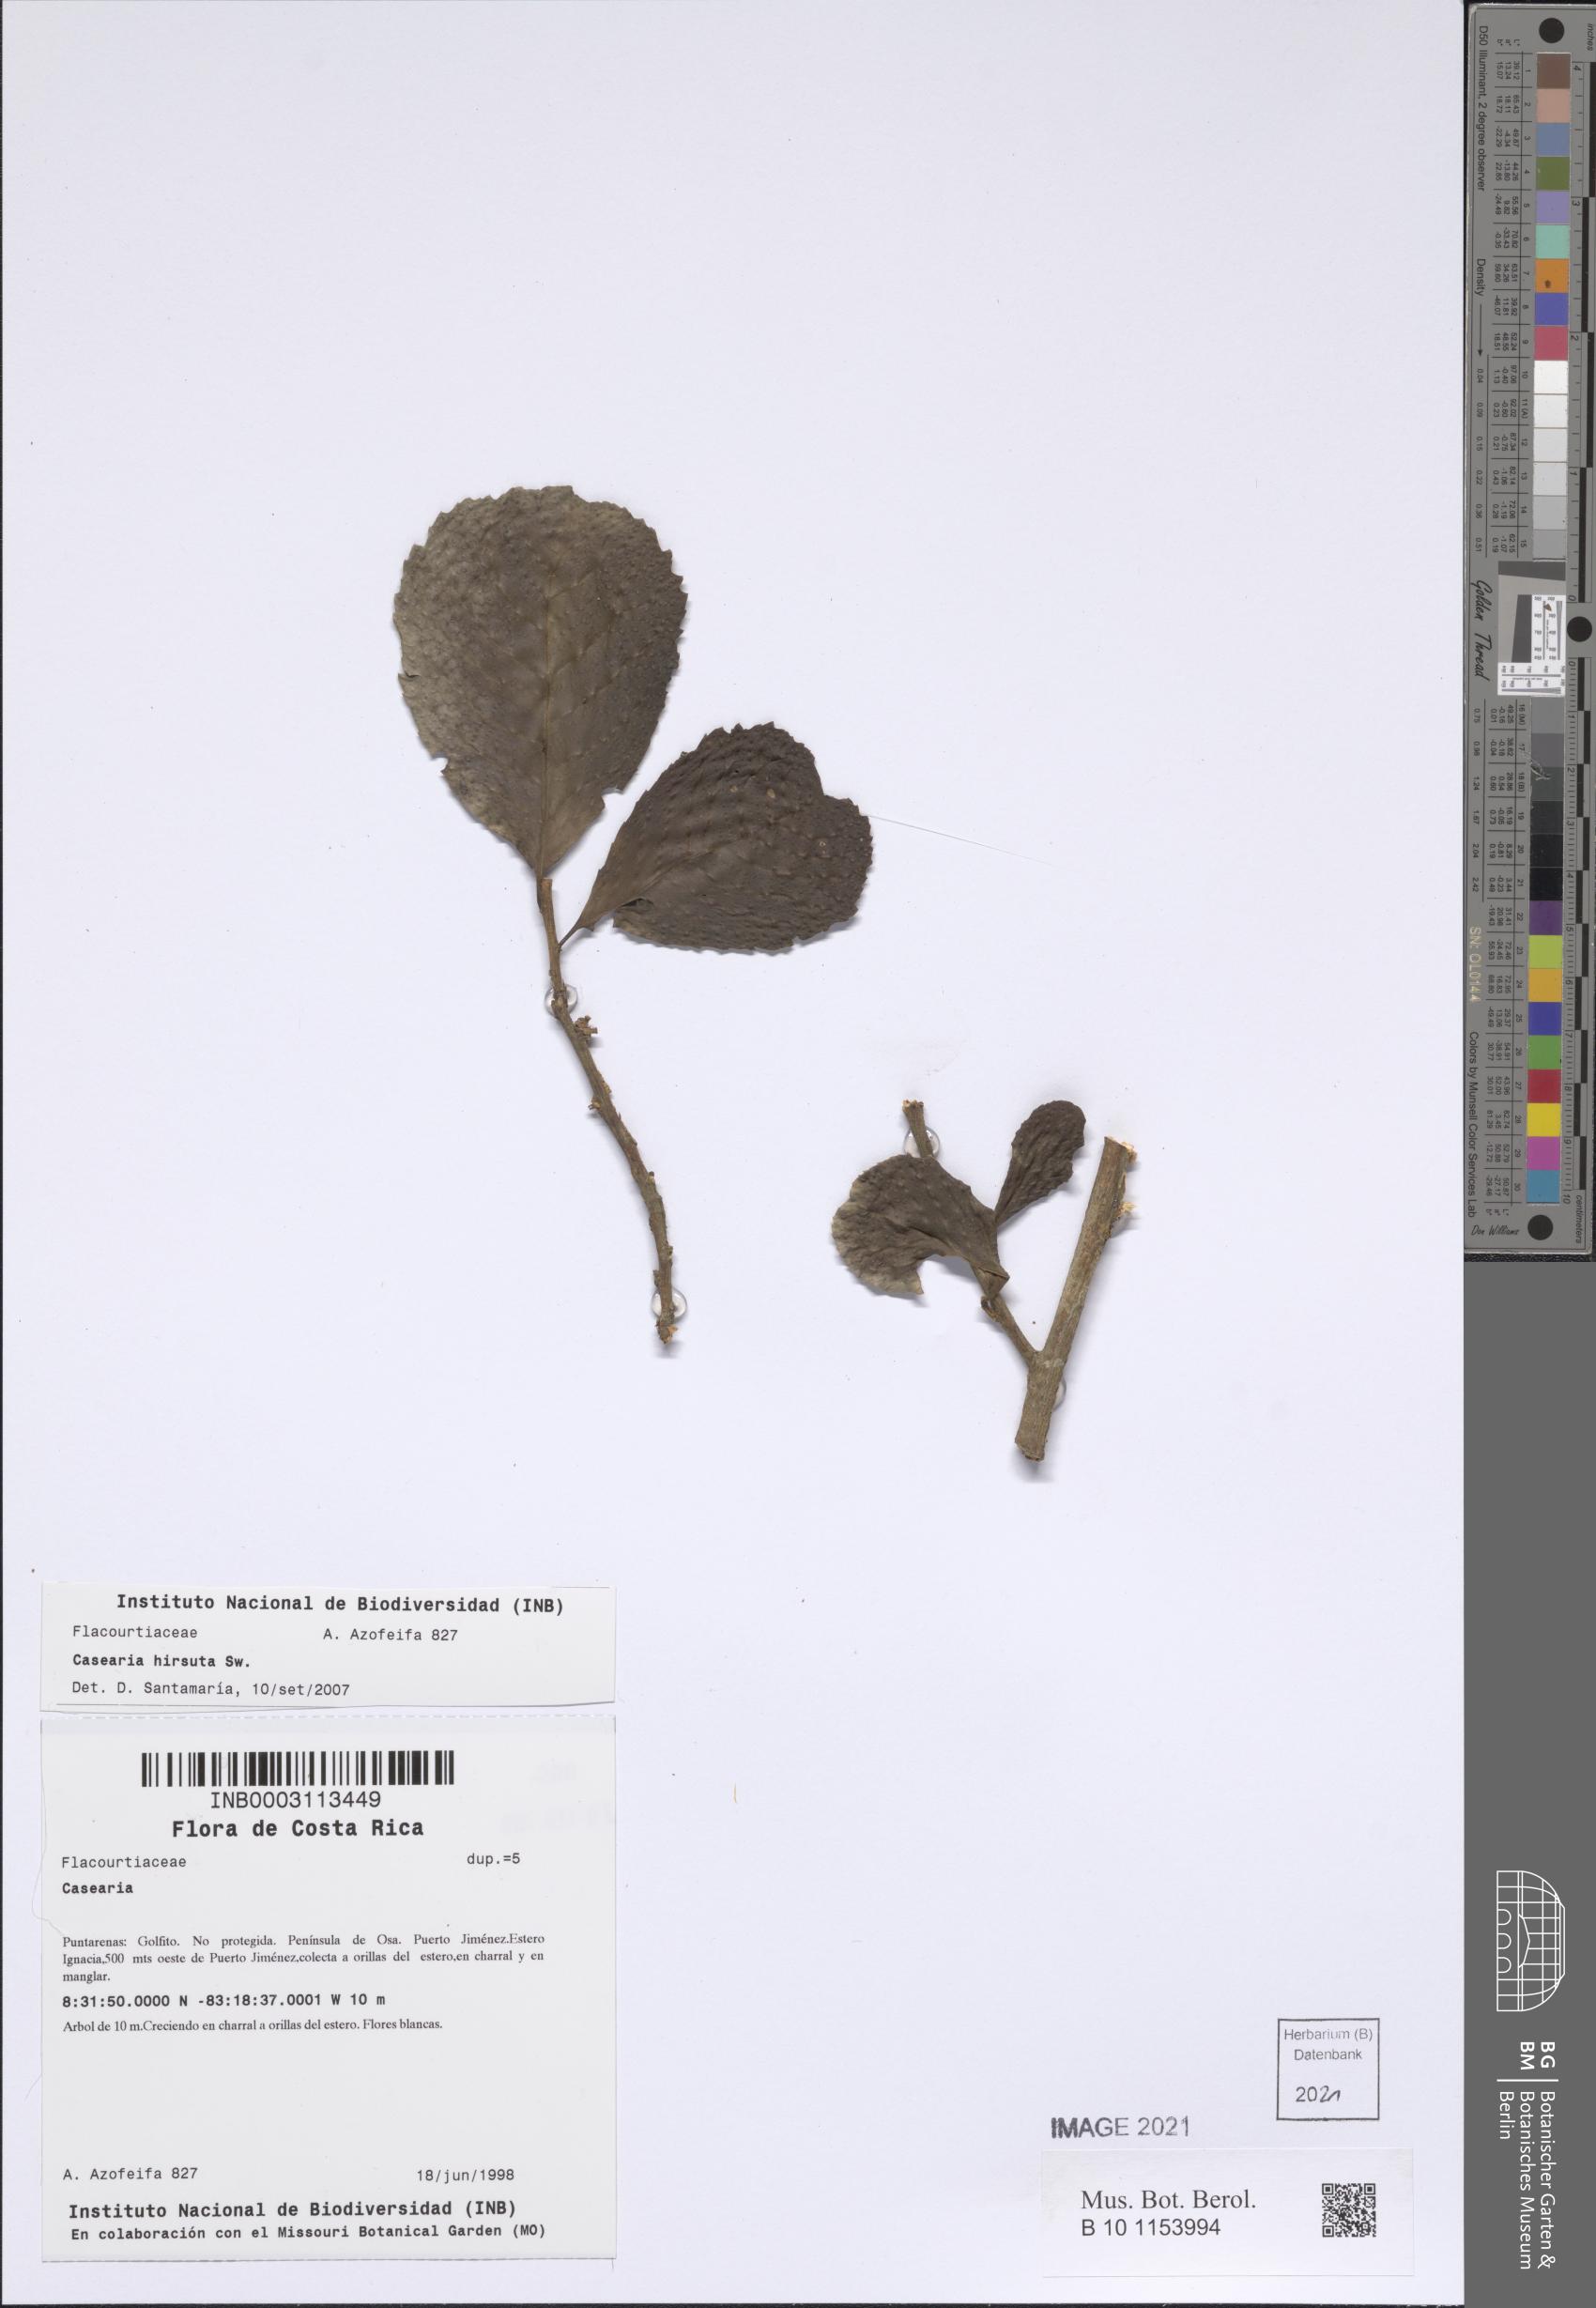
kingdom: Plantae
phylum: Tracheophyta
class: Magnoliopsida
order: Malpighiales
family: Salicaceae
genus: Casearia
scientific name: Casearia hirsuta
